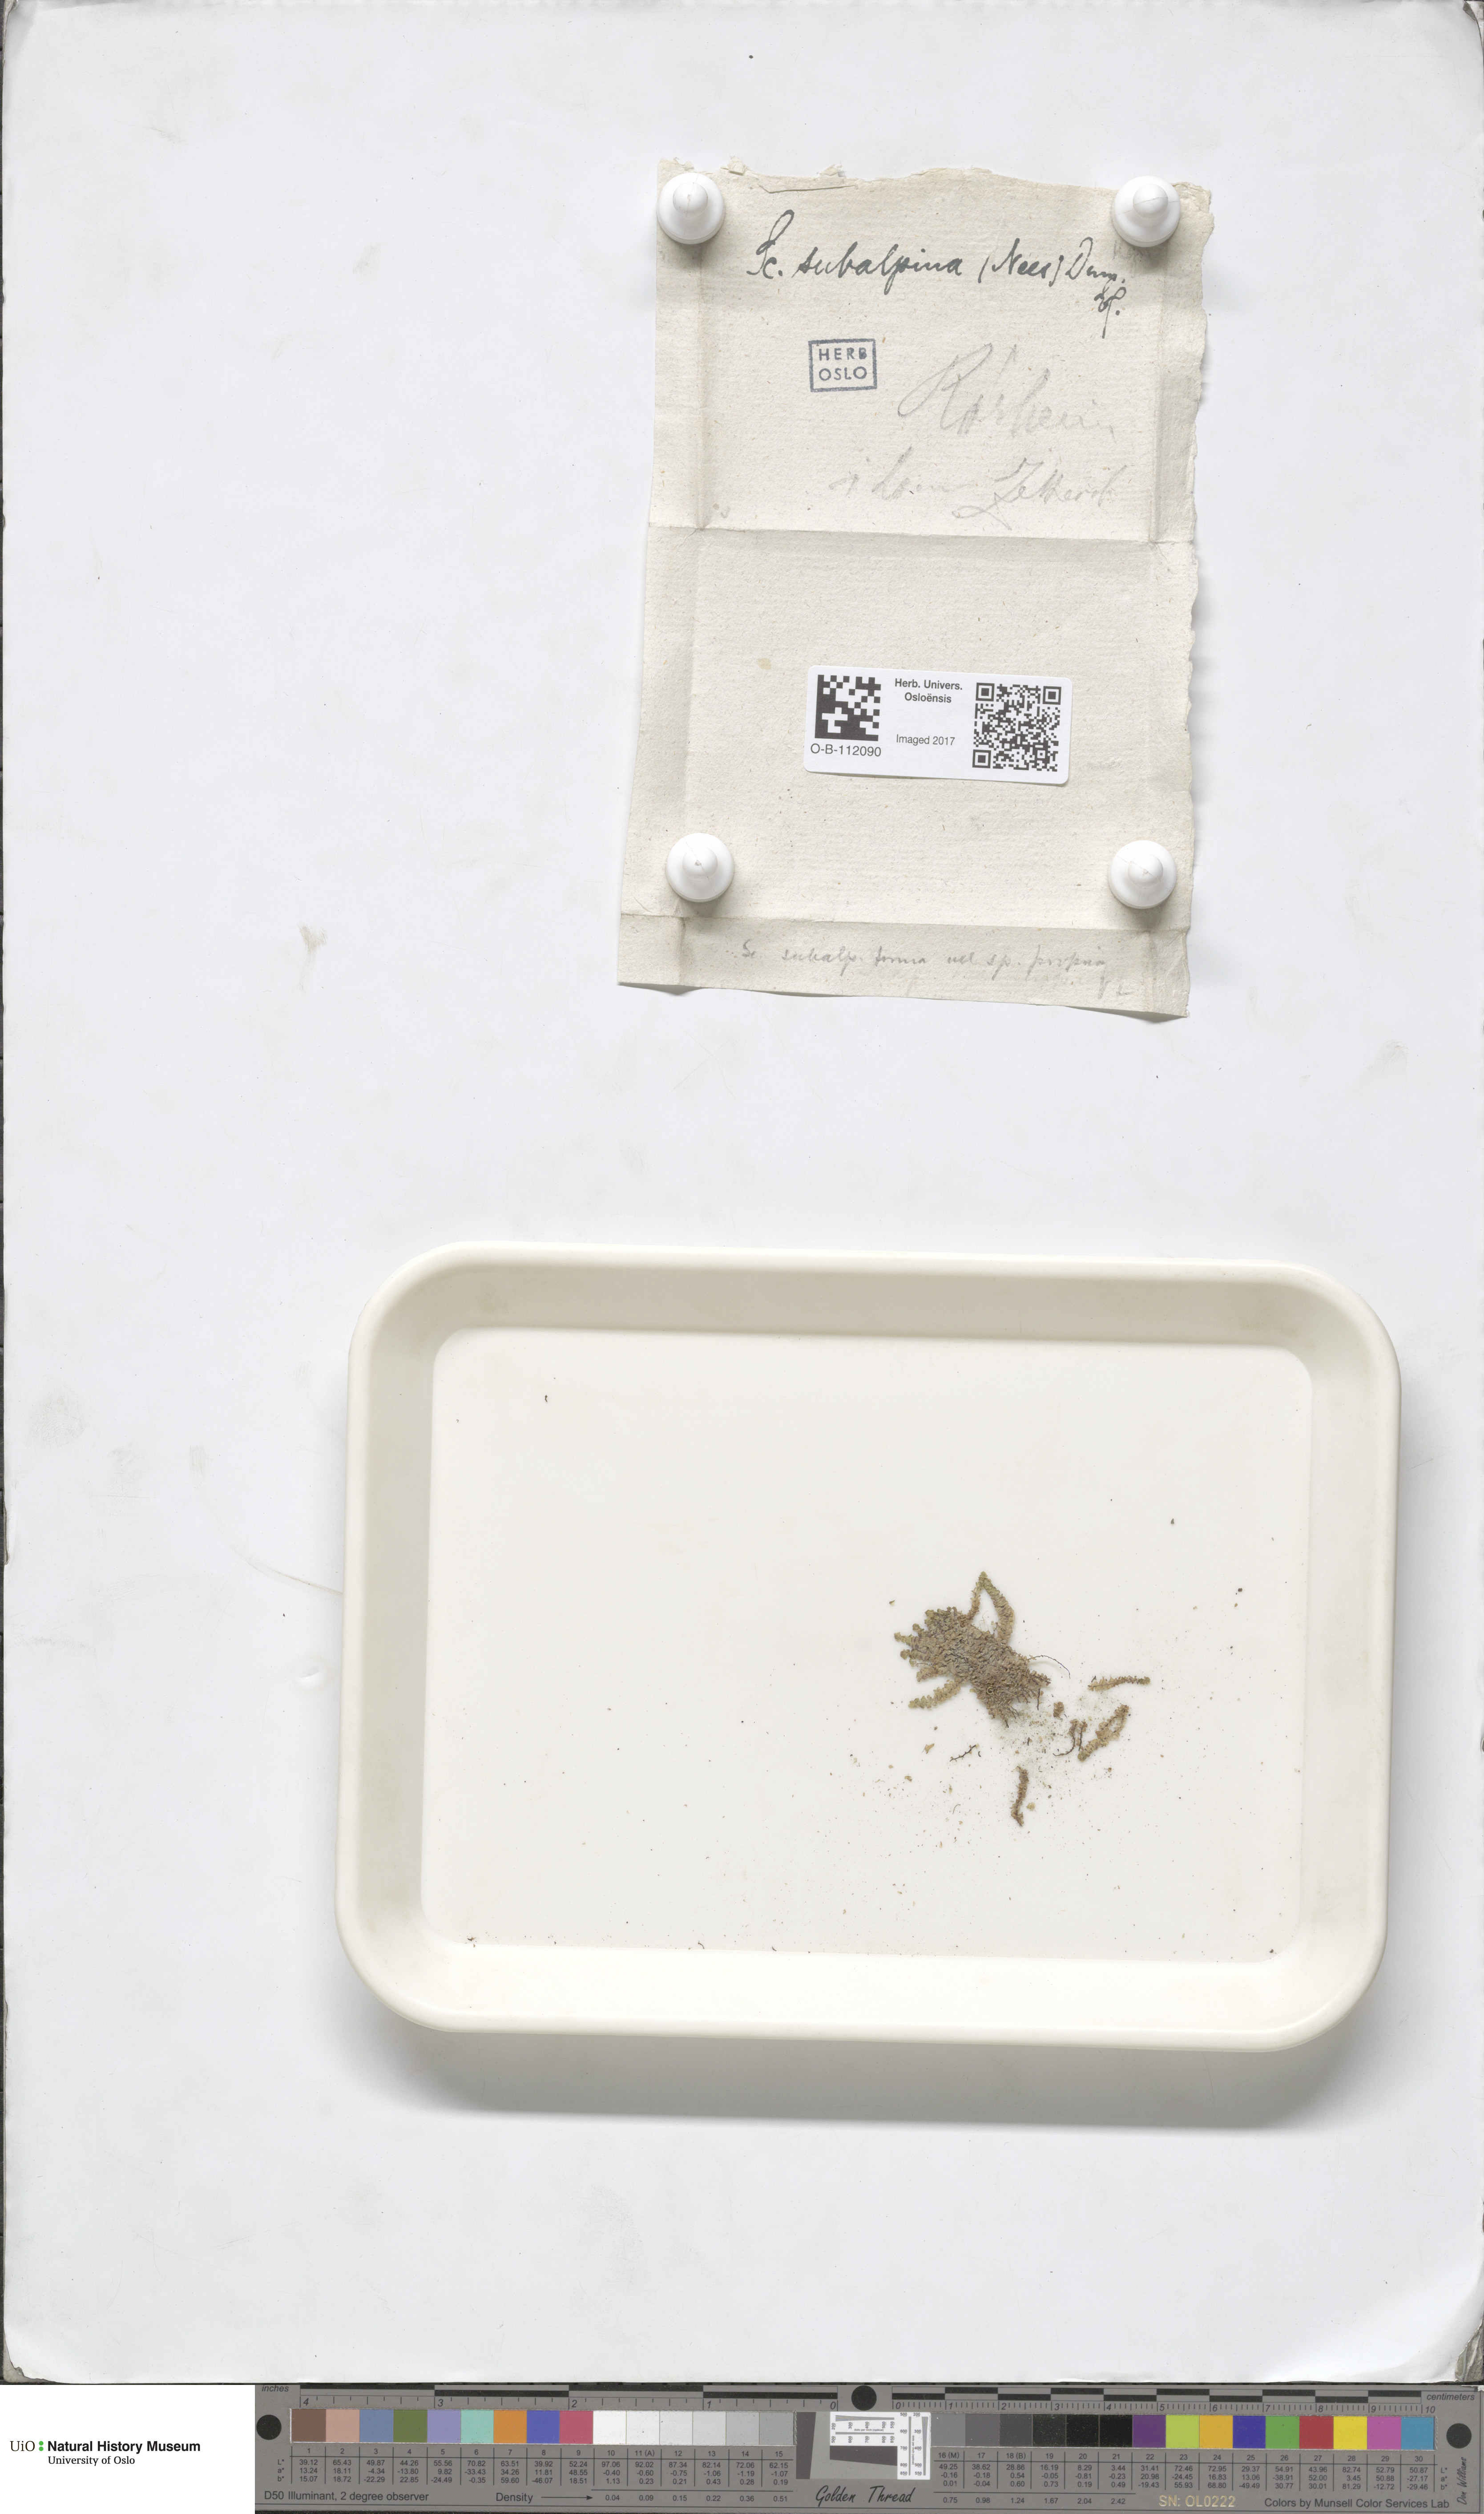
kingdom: Plantae
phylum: Marchantiophyta
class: Jungermanniopsida
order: Jungermanniales
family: Scapaniaceae
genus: Scapania
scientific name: Scapania subalpina
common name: Subalpine earwort
